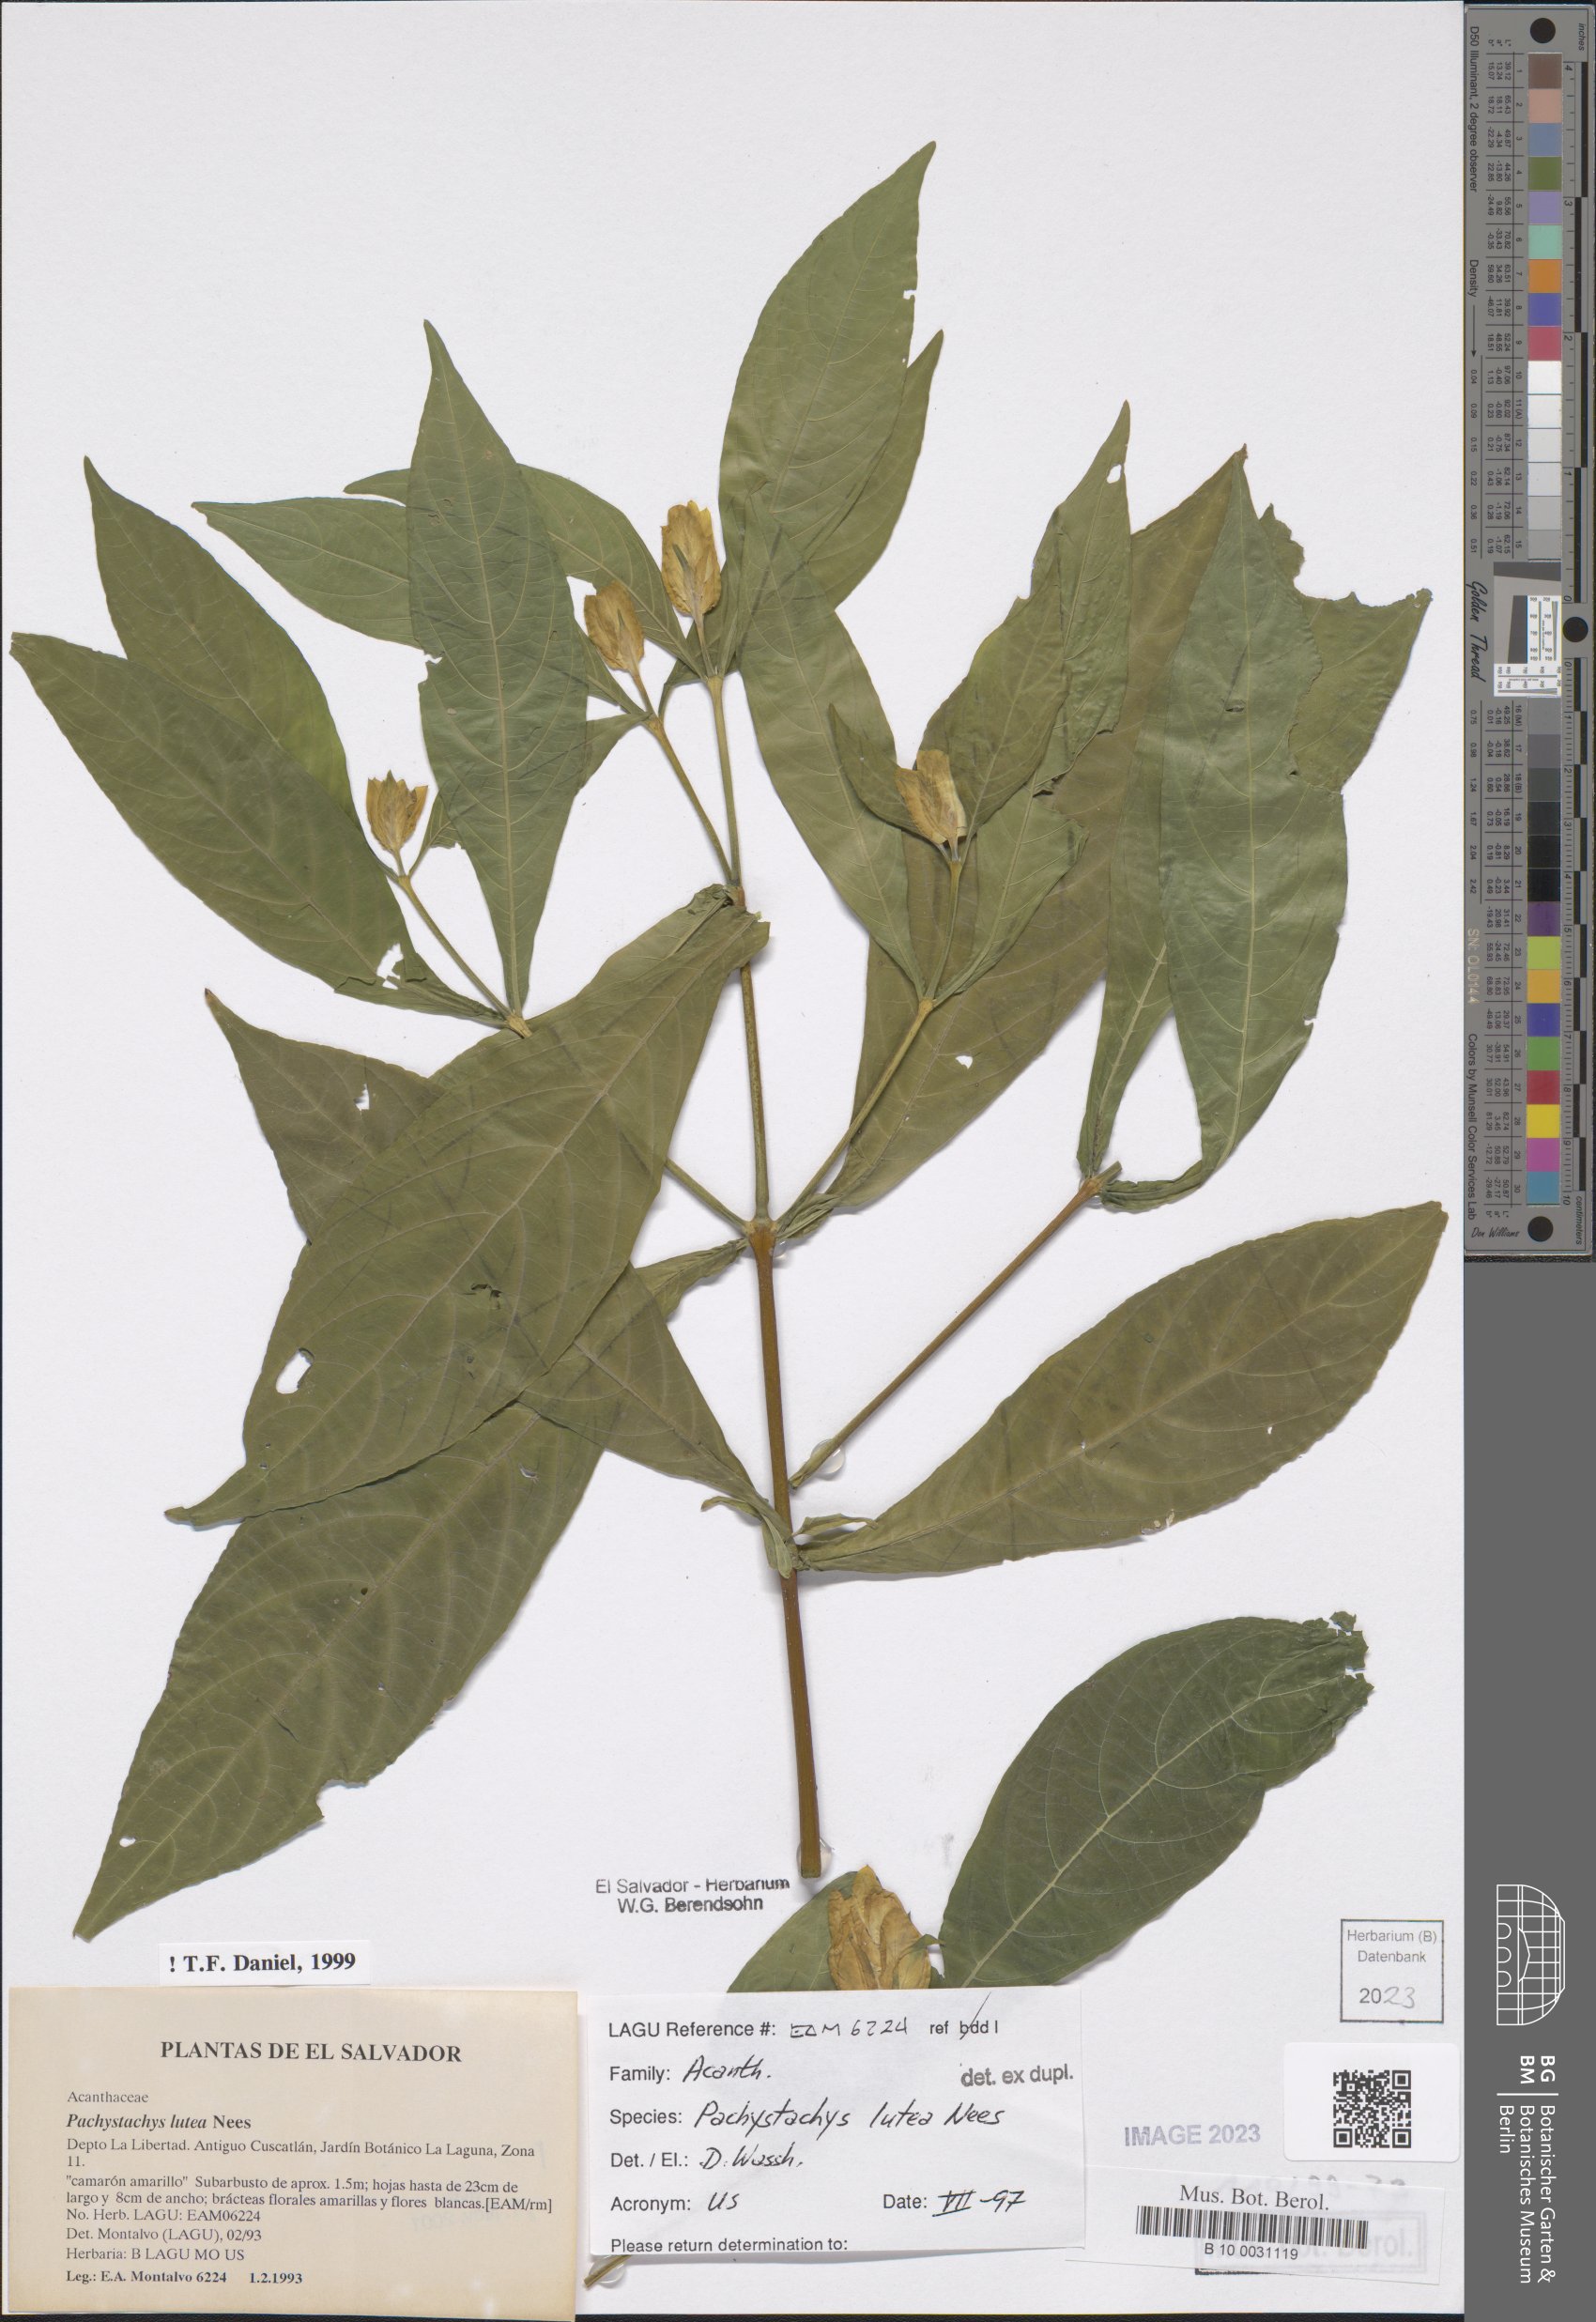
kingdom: Plantae
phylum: Tracheophyta
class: Magnoliopsida
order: Lamiales
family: Acanthaceae
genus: Pachystachys
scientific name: Pachystachys lutea
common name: Golden shrimp-plant
